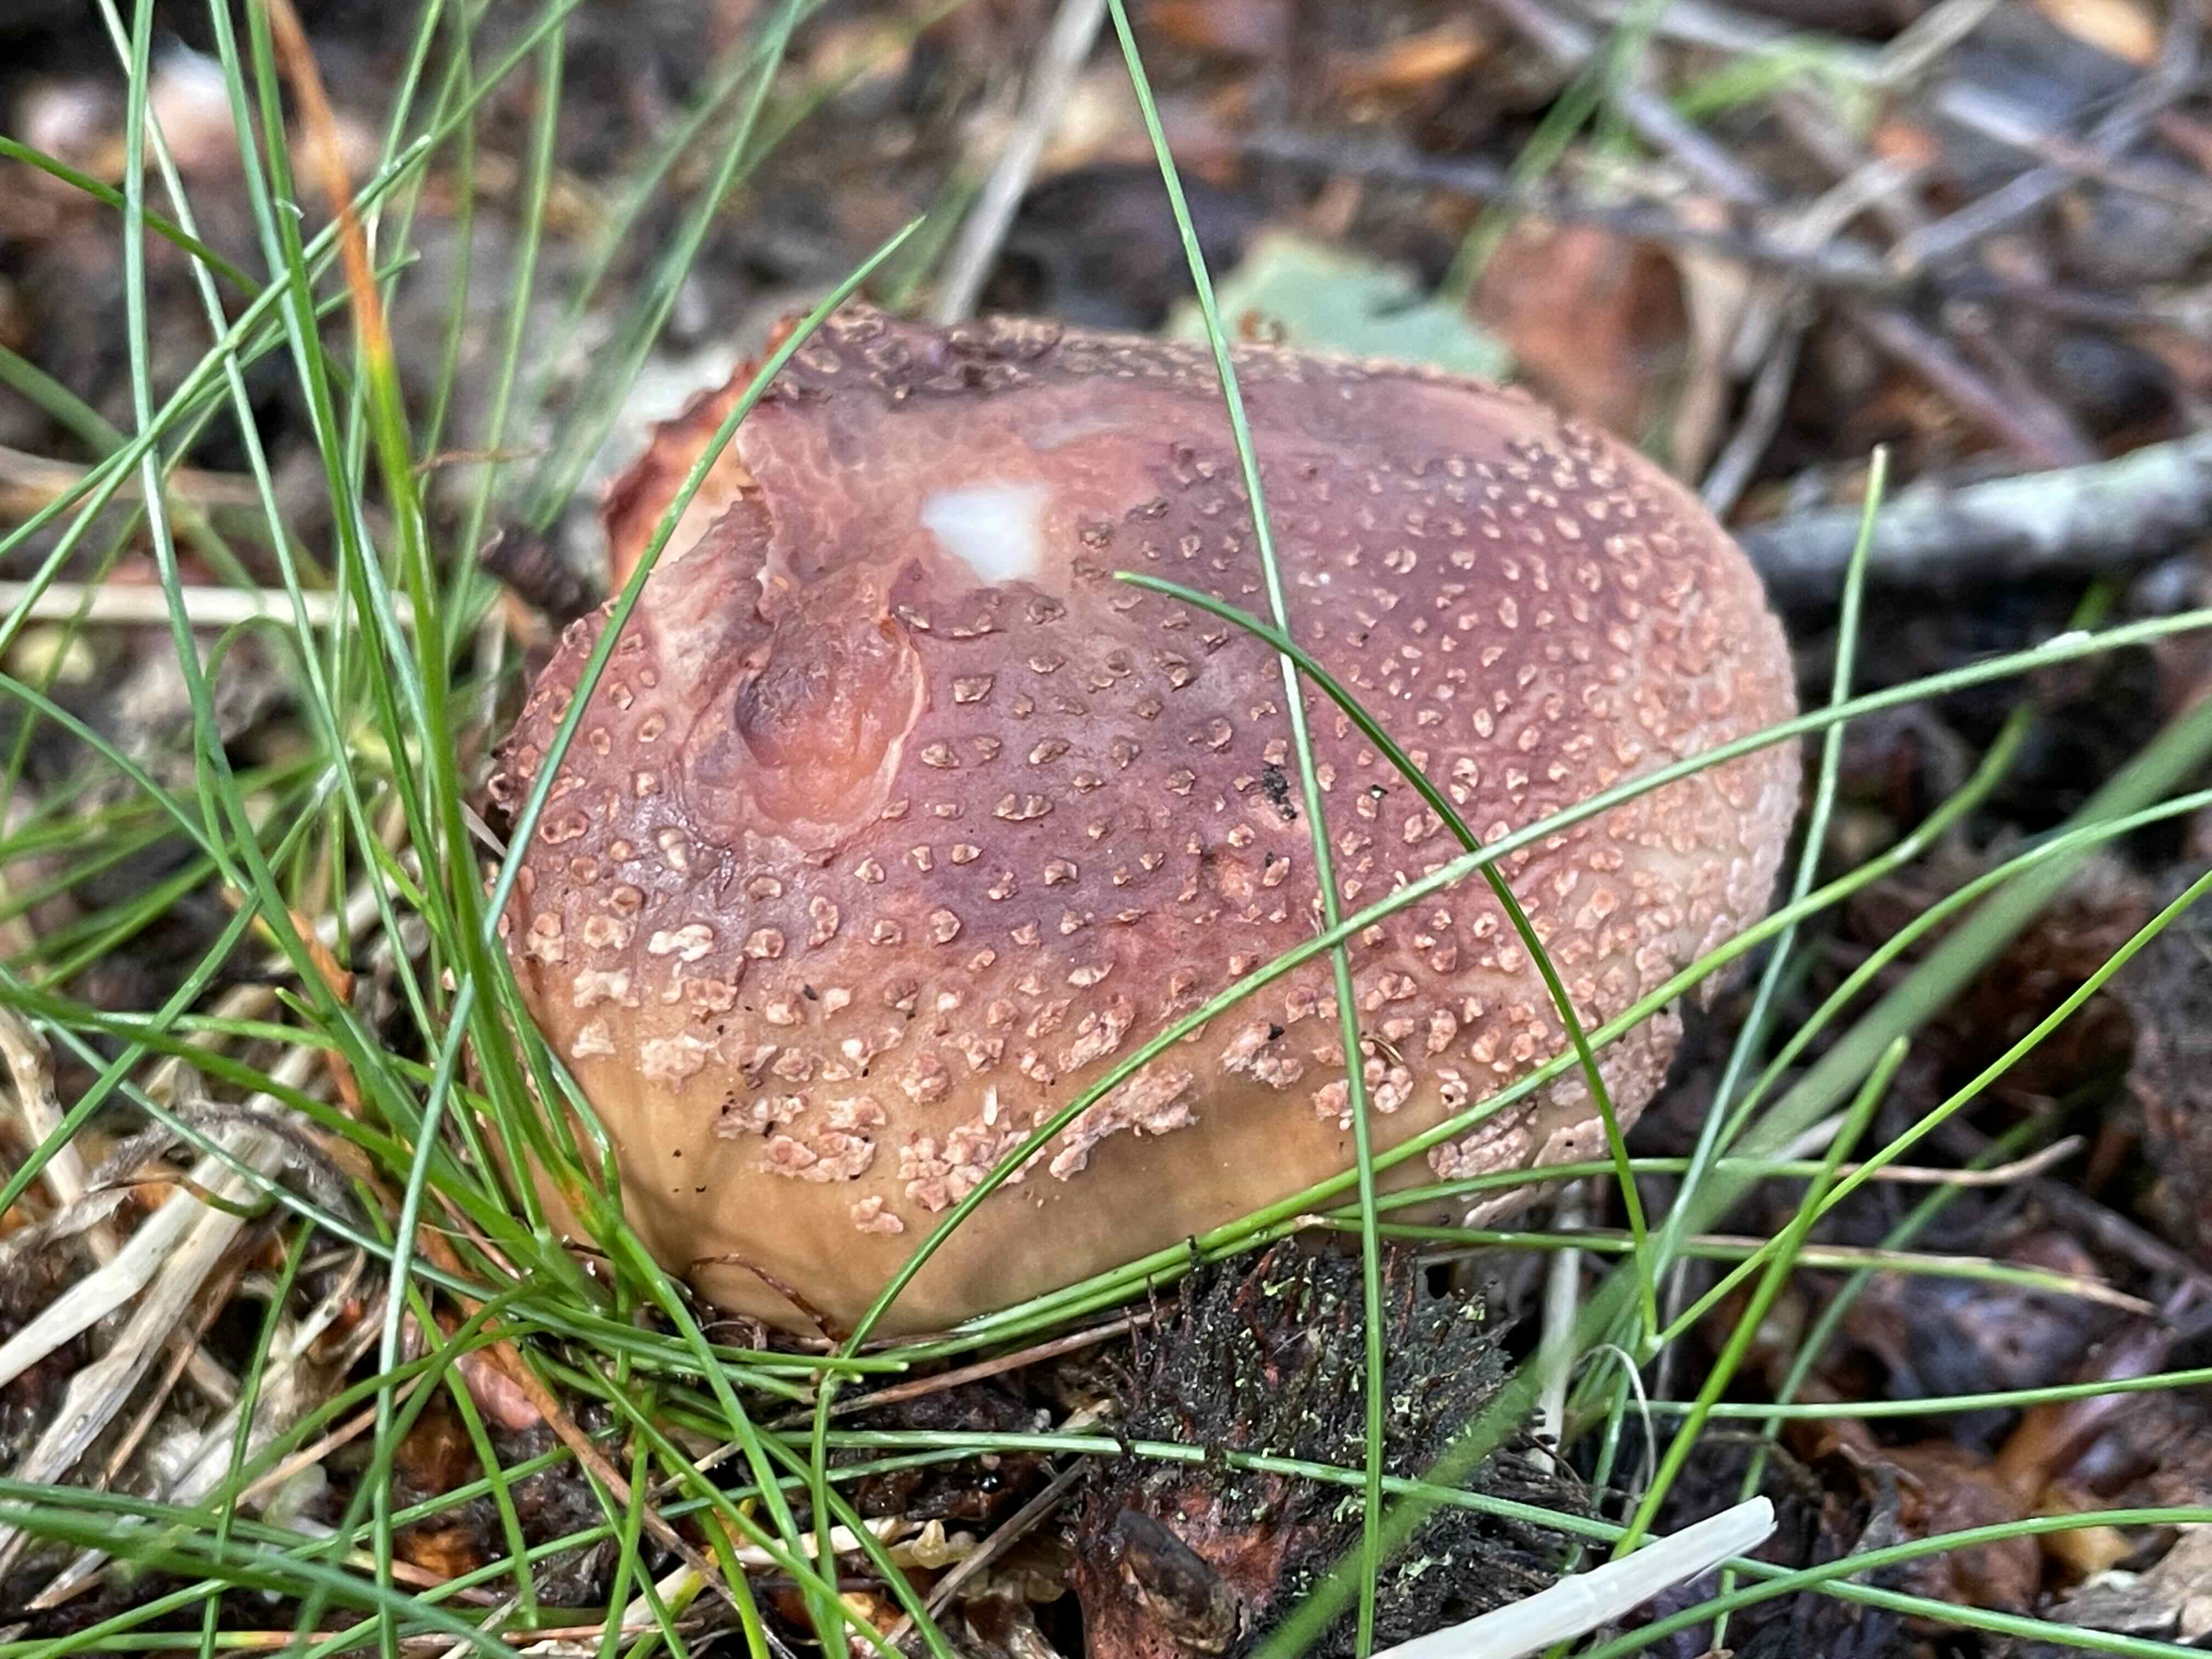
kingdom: Fungi
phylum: Basidiomycota
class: Agaricomycetes
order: Agaricales
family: Amanitaceae
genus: Amanita
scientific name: Amanita rubescens
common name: rødmende fluesvamp
